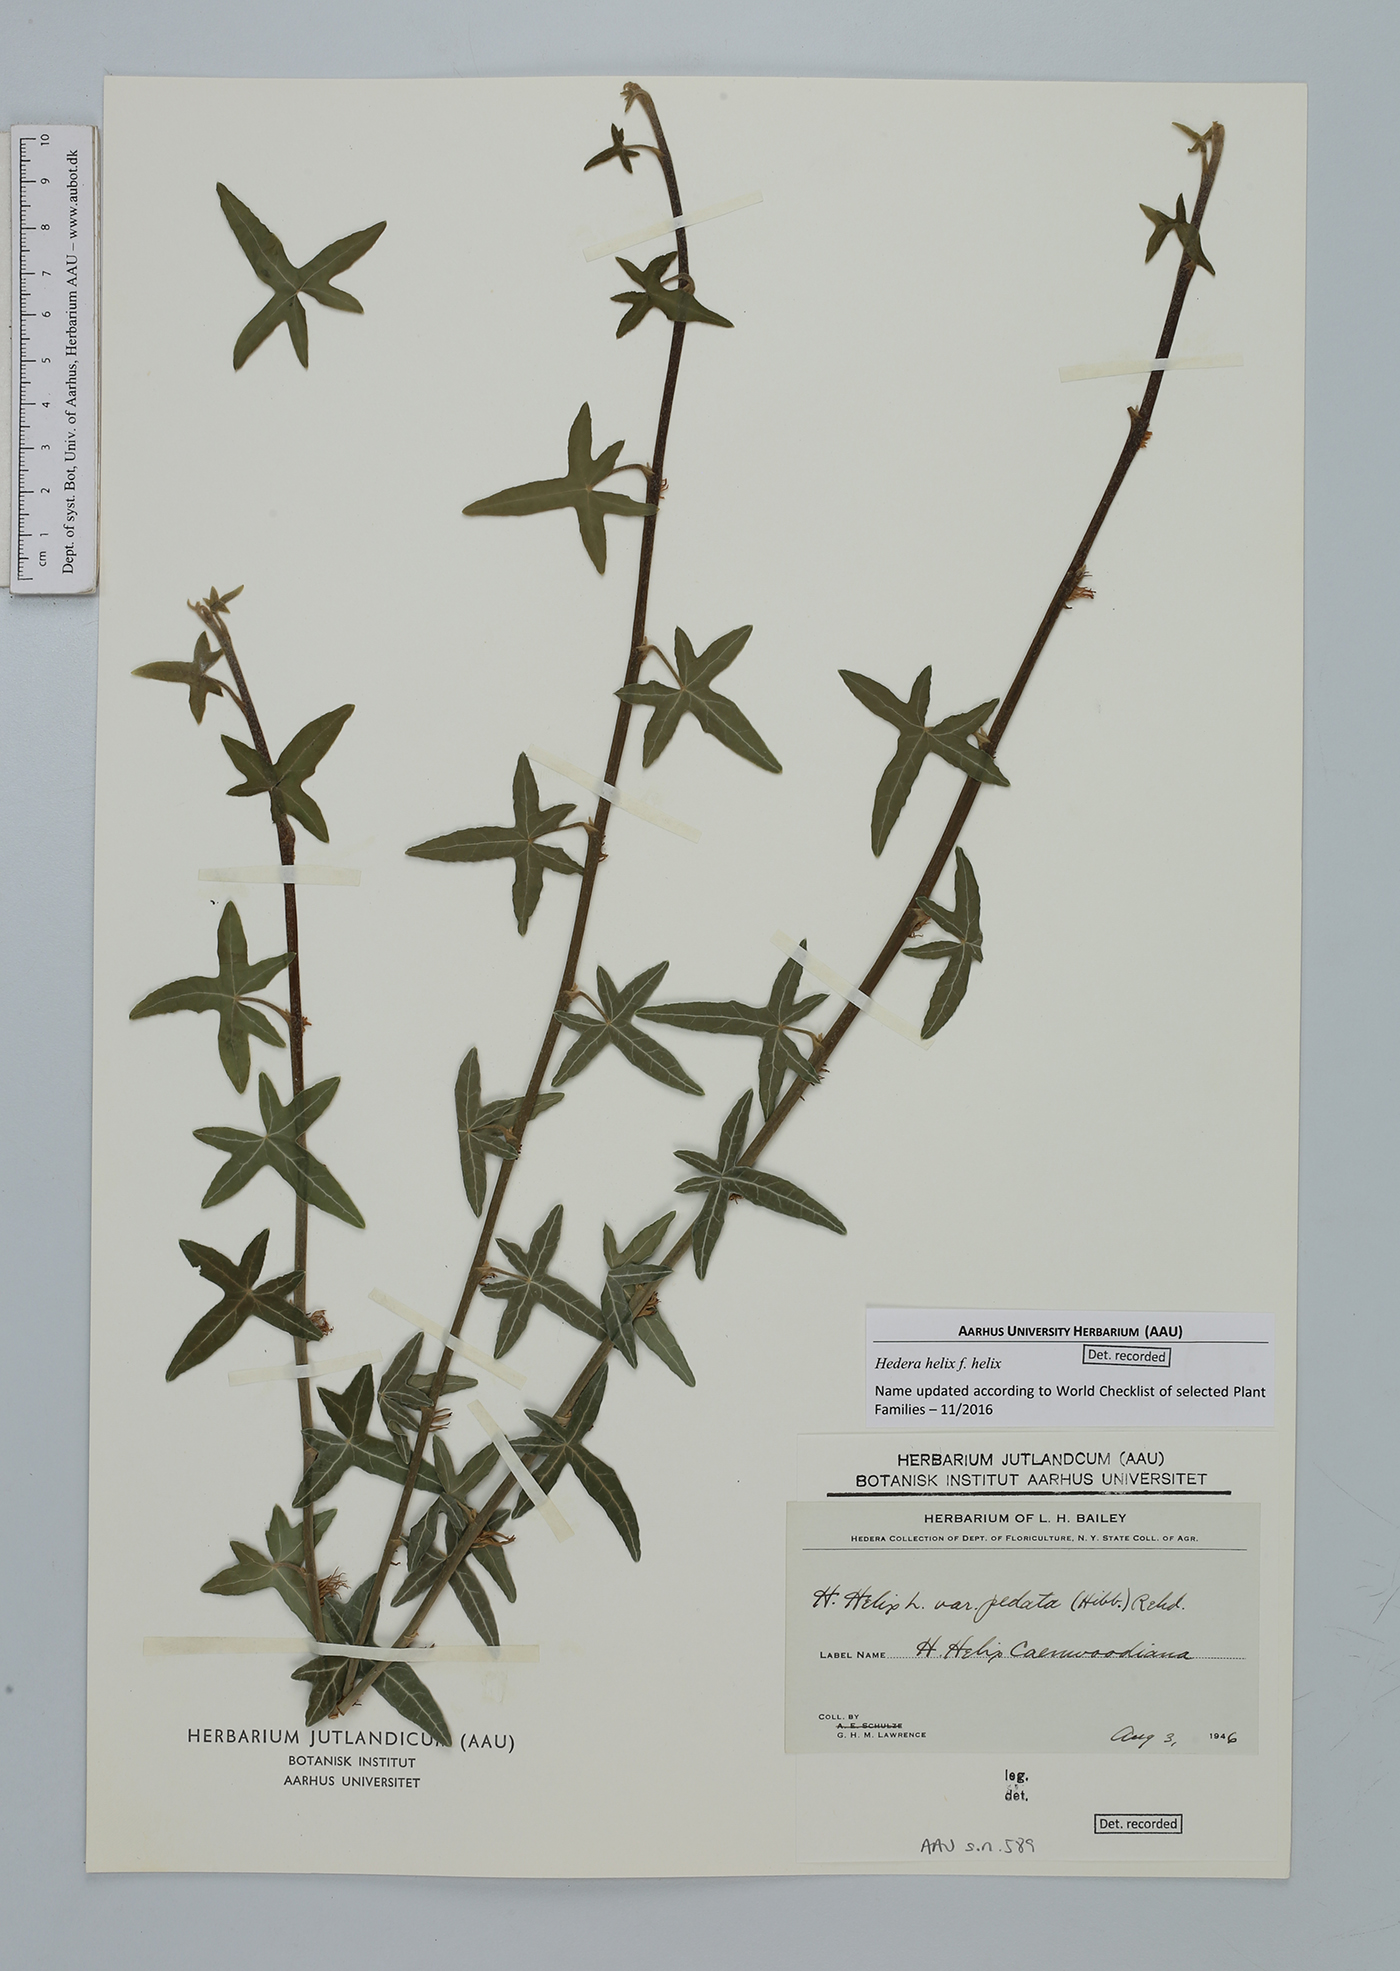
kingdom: Plantae
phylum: Tracheophyta
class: Magnoliopsida
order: Apiales
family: Araliaceae
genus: Hedera
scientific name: Hedera helix
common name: Ivy
